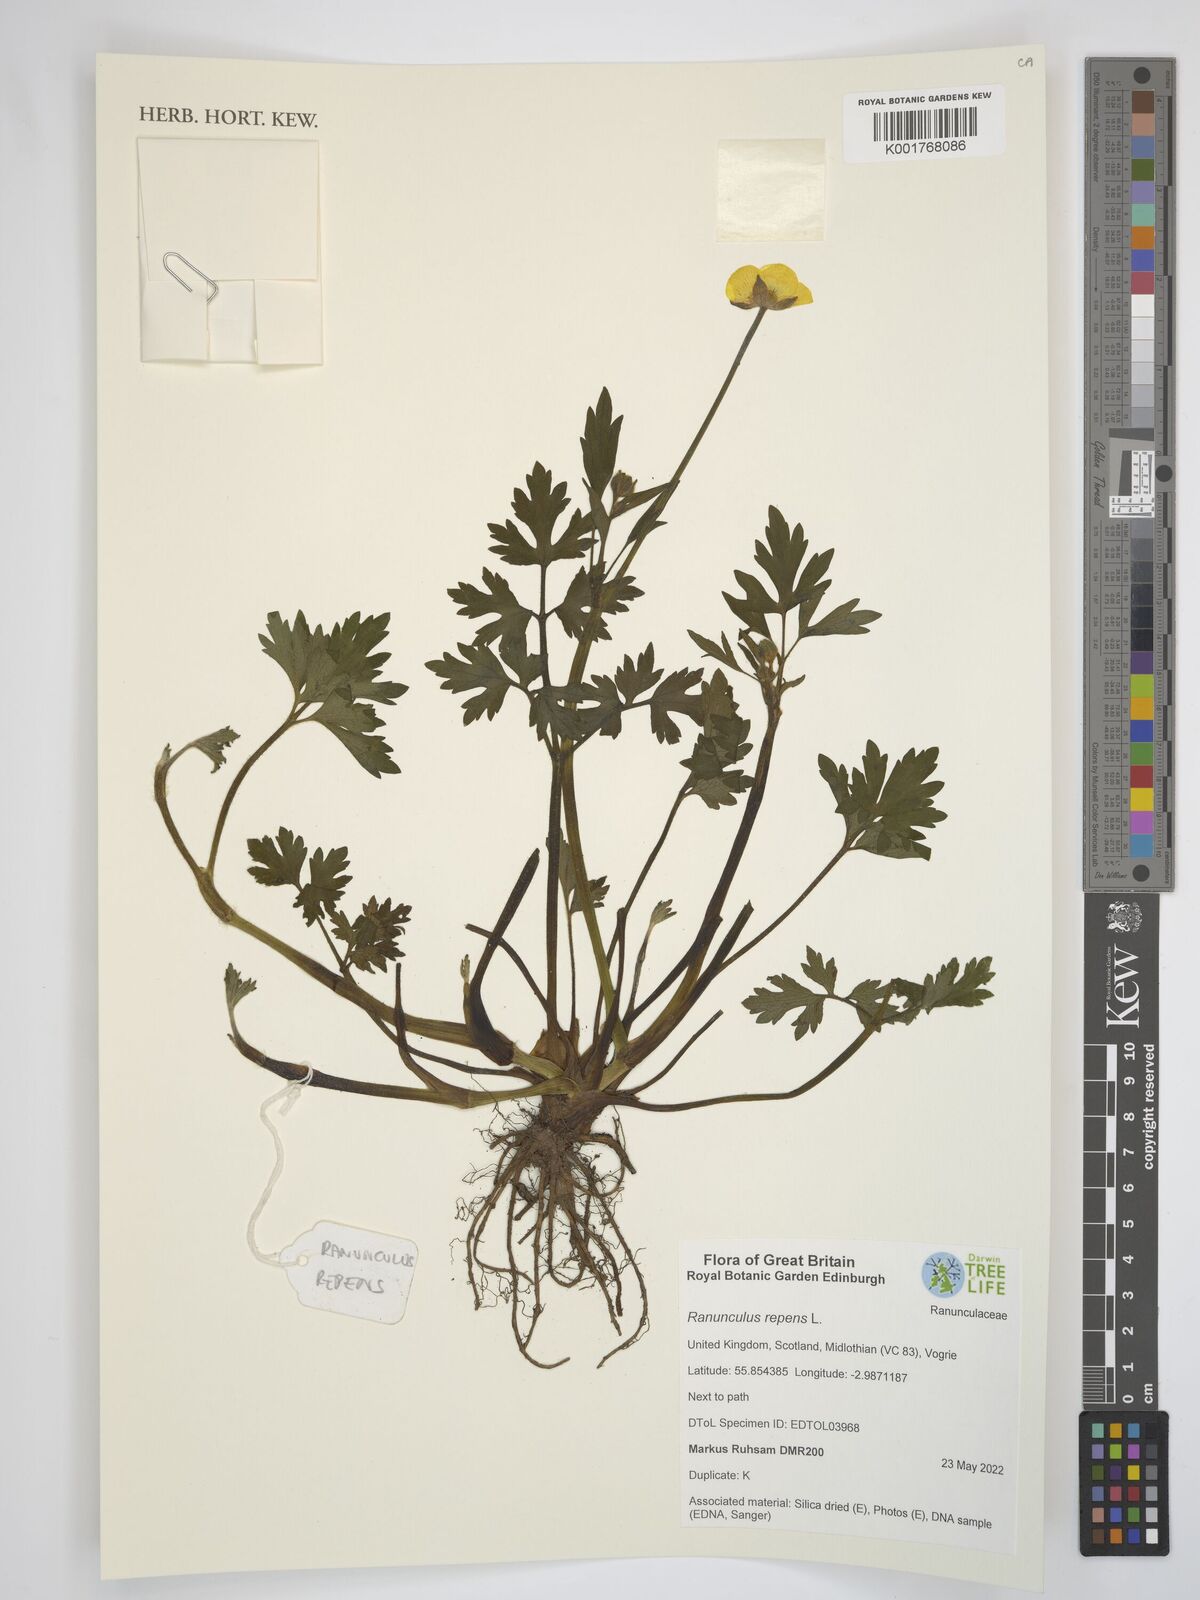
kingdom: Plantae
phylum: Tracheophyta
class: Magnoliopsida
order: Ranunculales
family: Ranunculaceae
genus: Ranunculus
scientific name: Ranunculus repens
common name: Creeping buttercup
